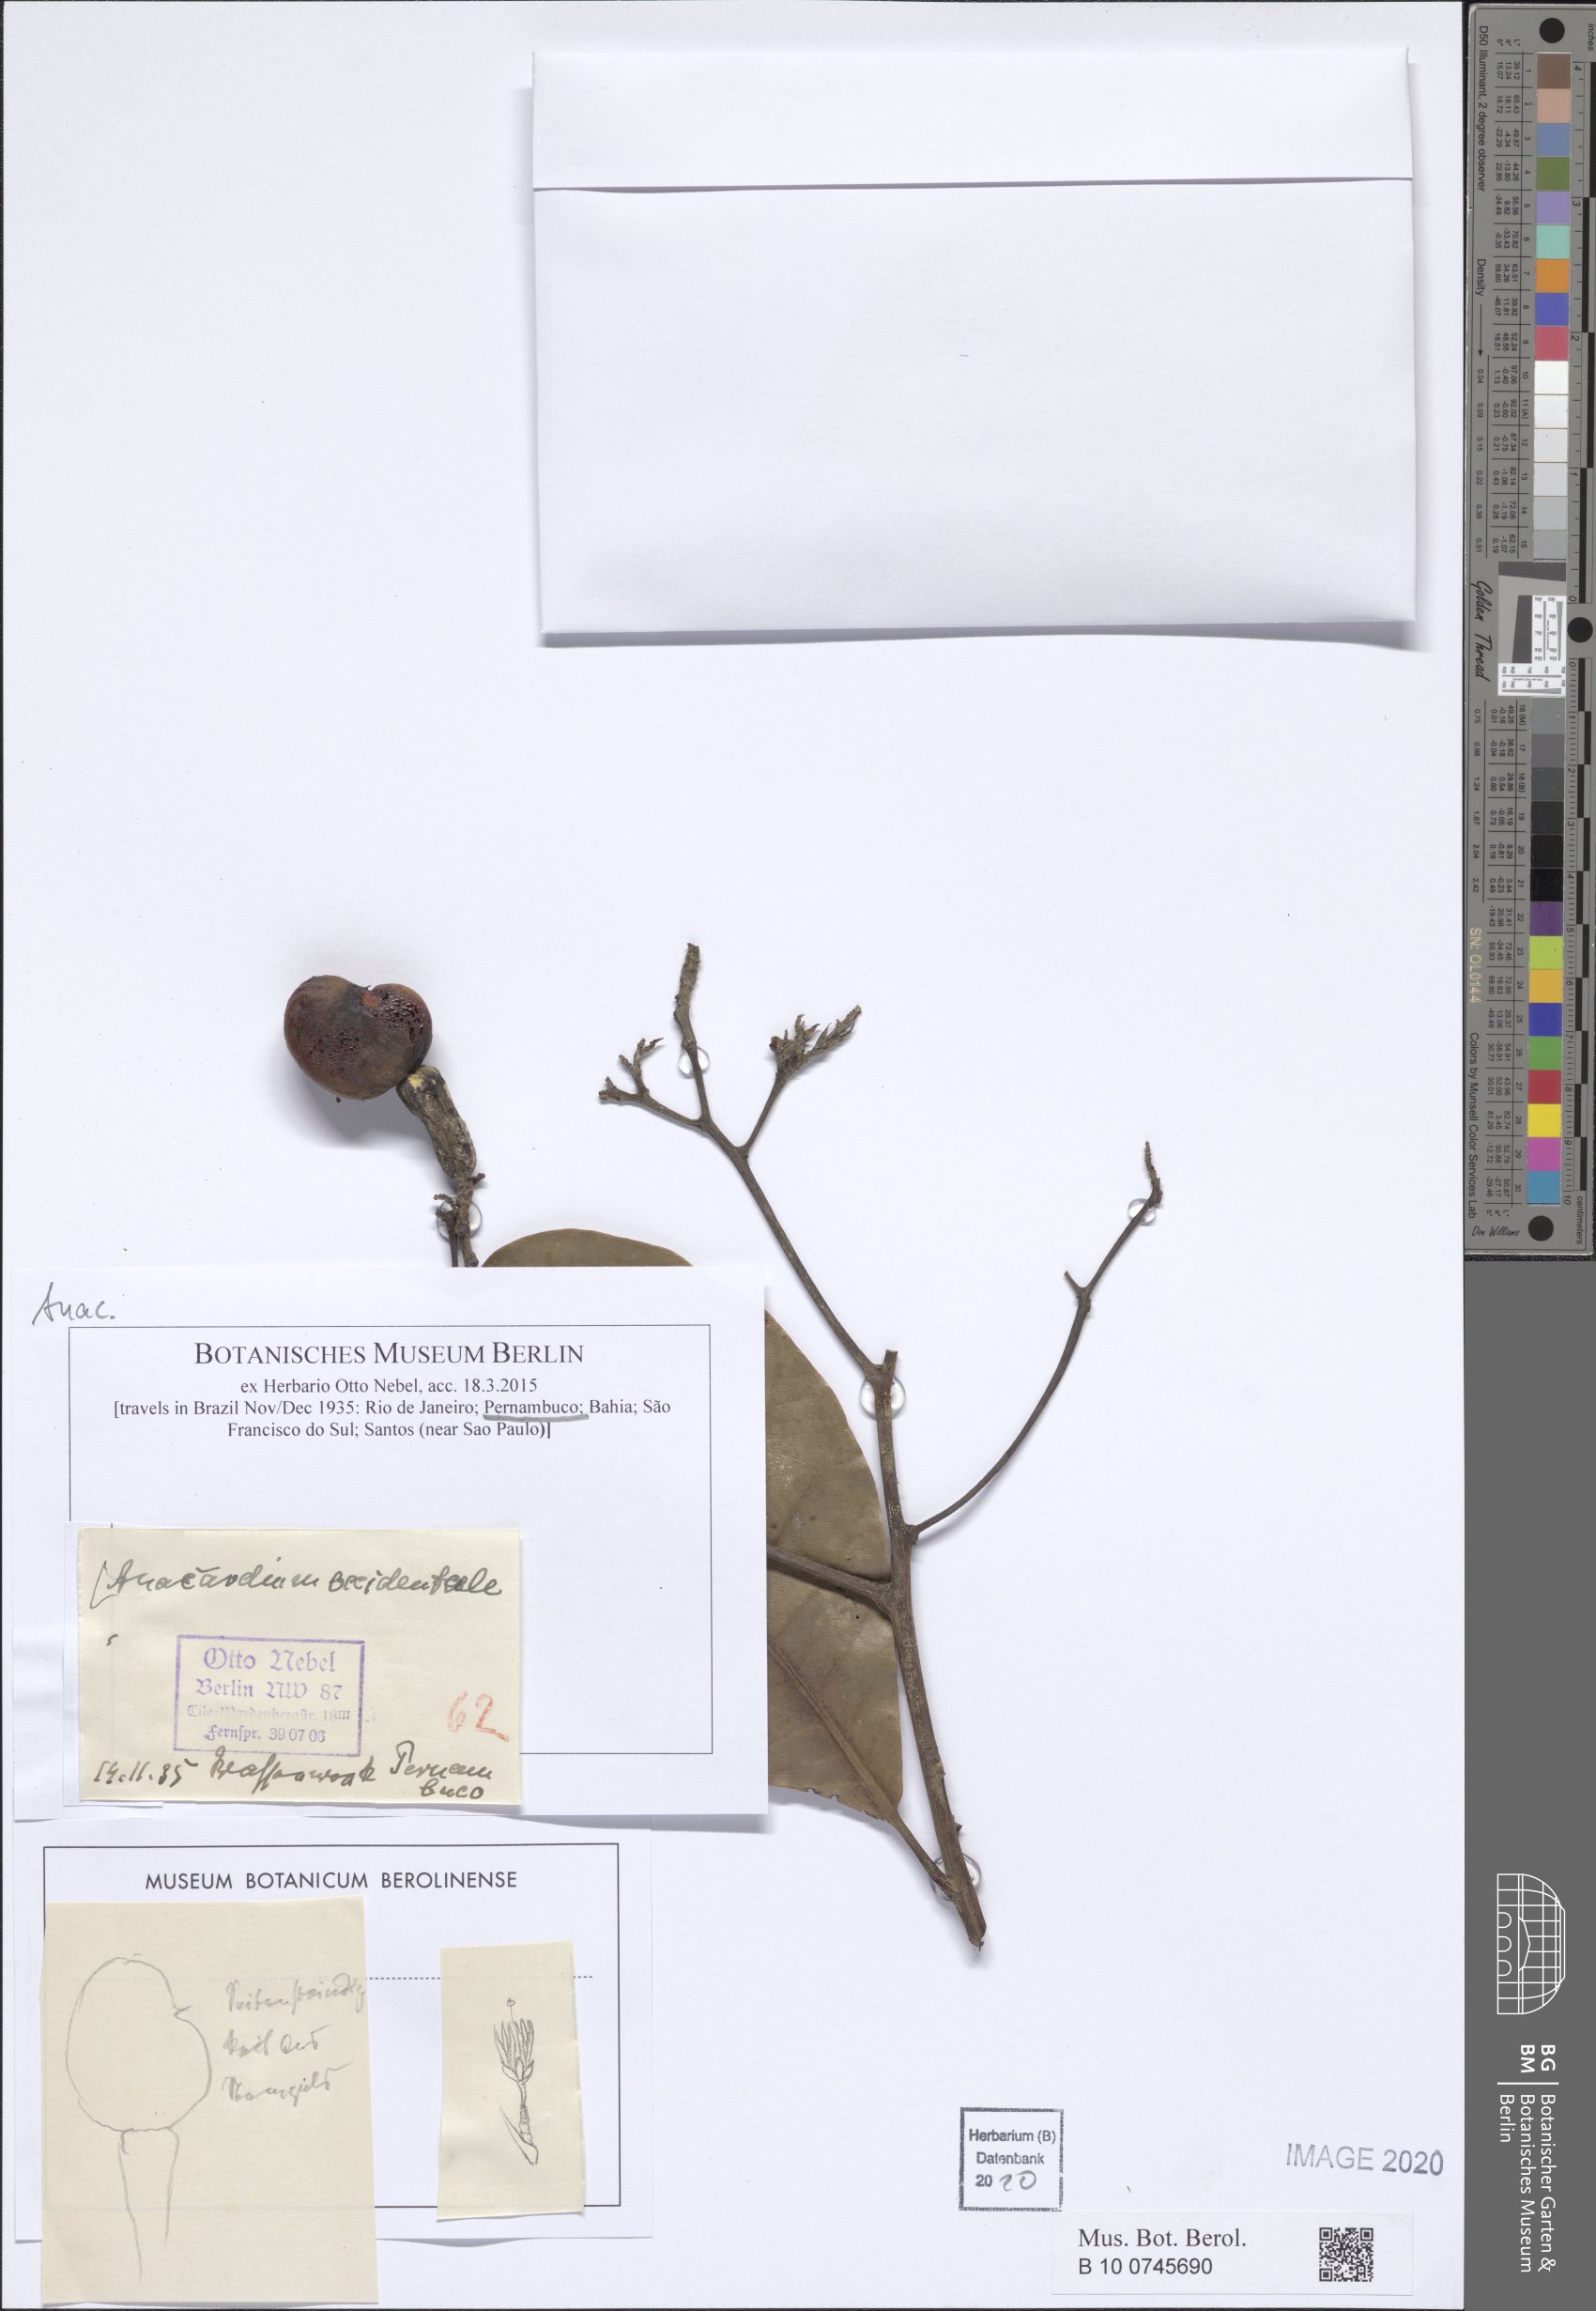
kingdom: Plantae
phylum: Tracheophyta
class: Magnoliopsida
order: Sapindales
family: Anacardiaceae
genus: Anacardium
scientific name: Anacardium occidentale
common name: Cashew
